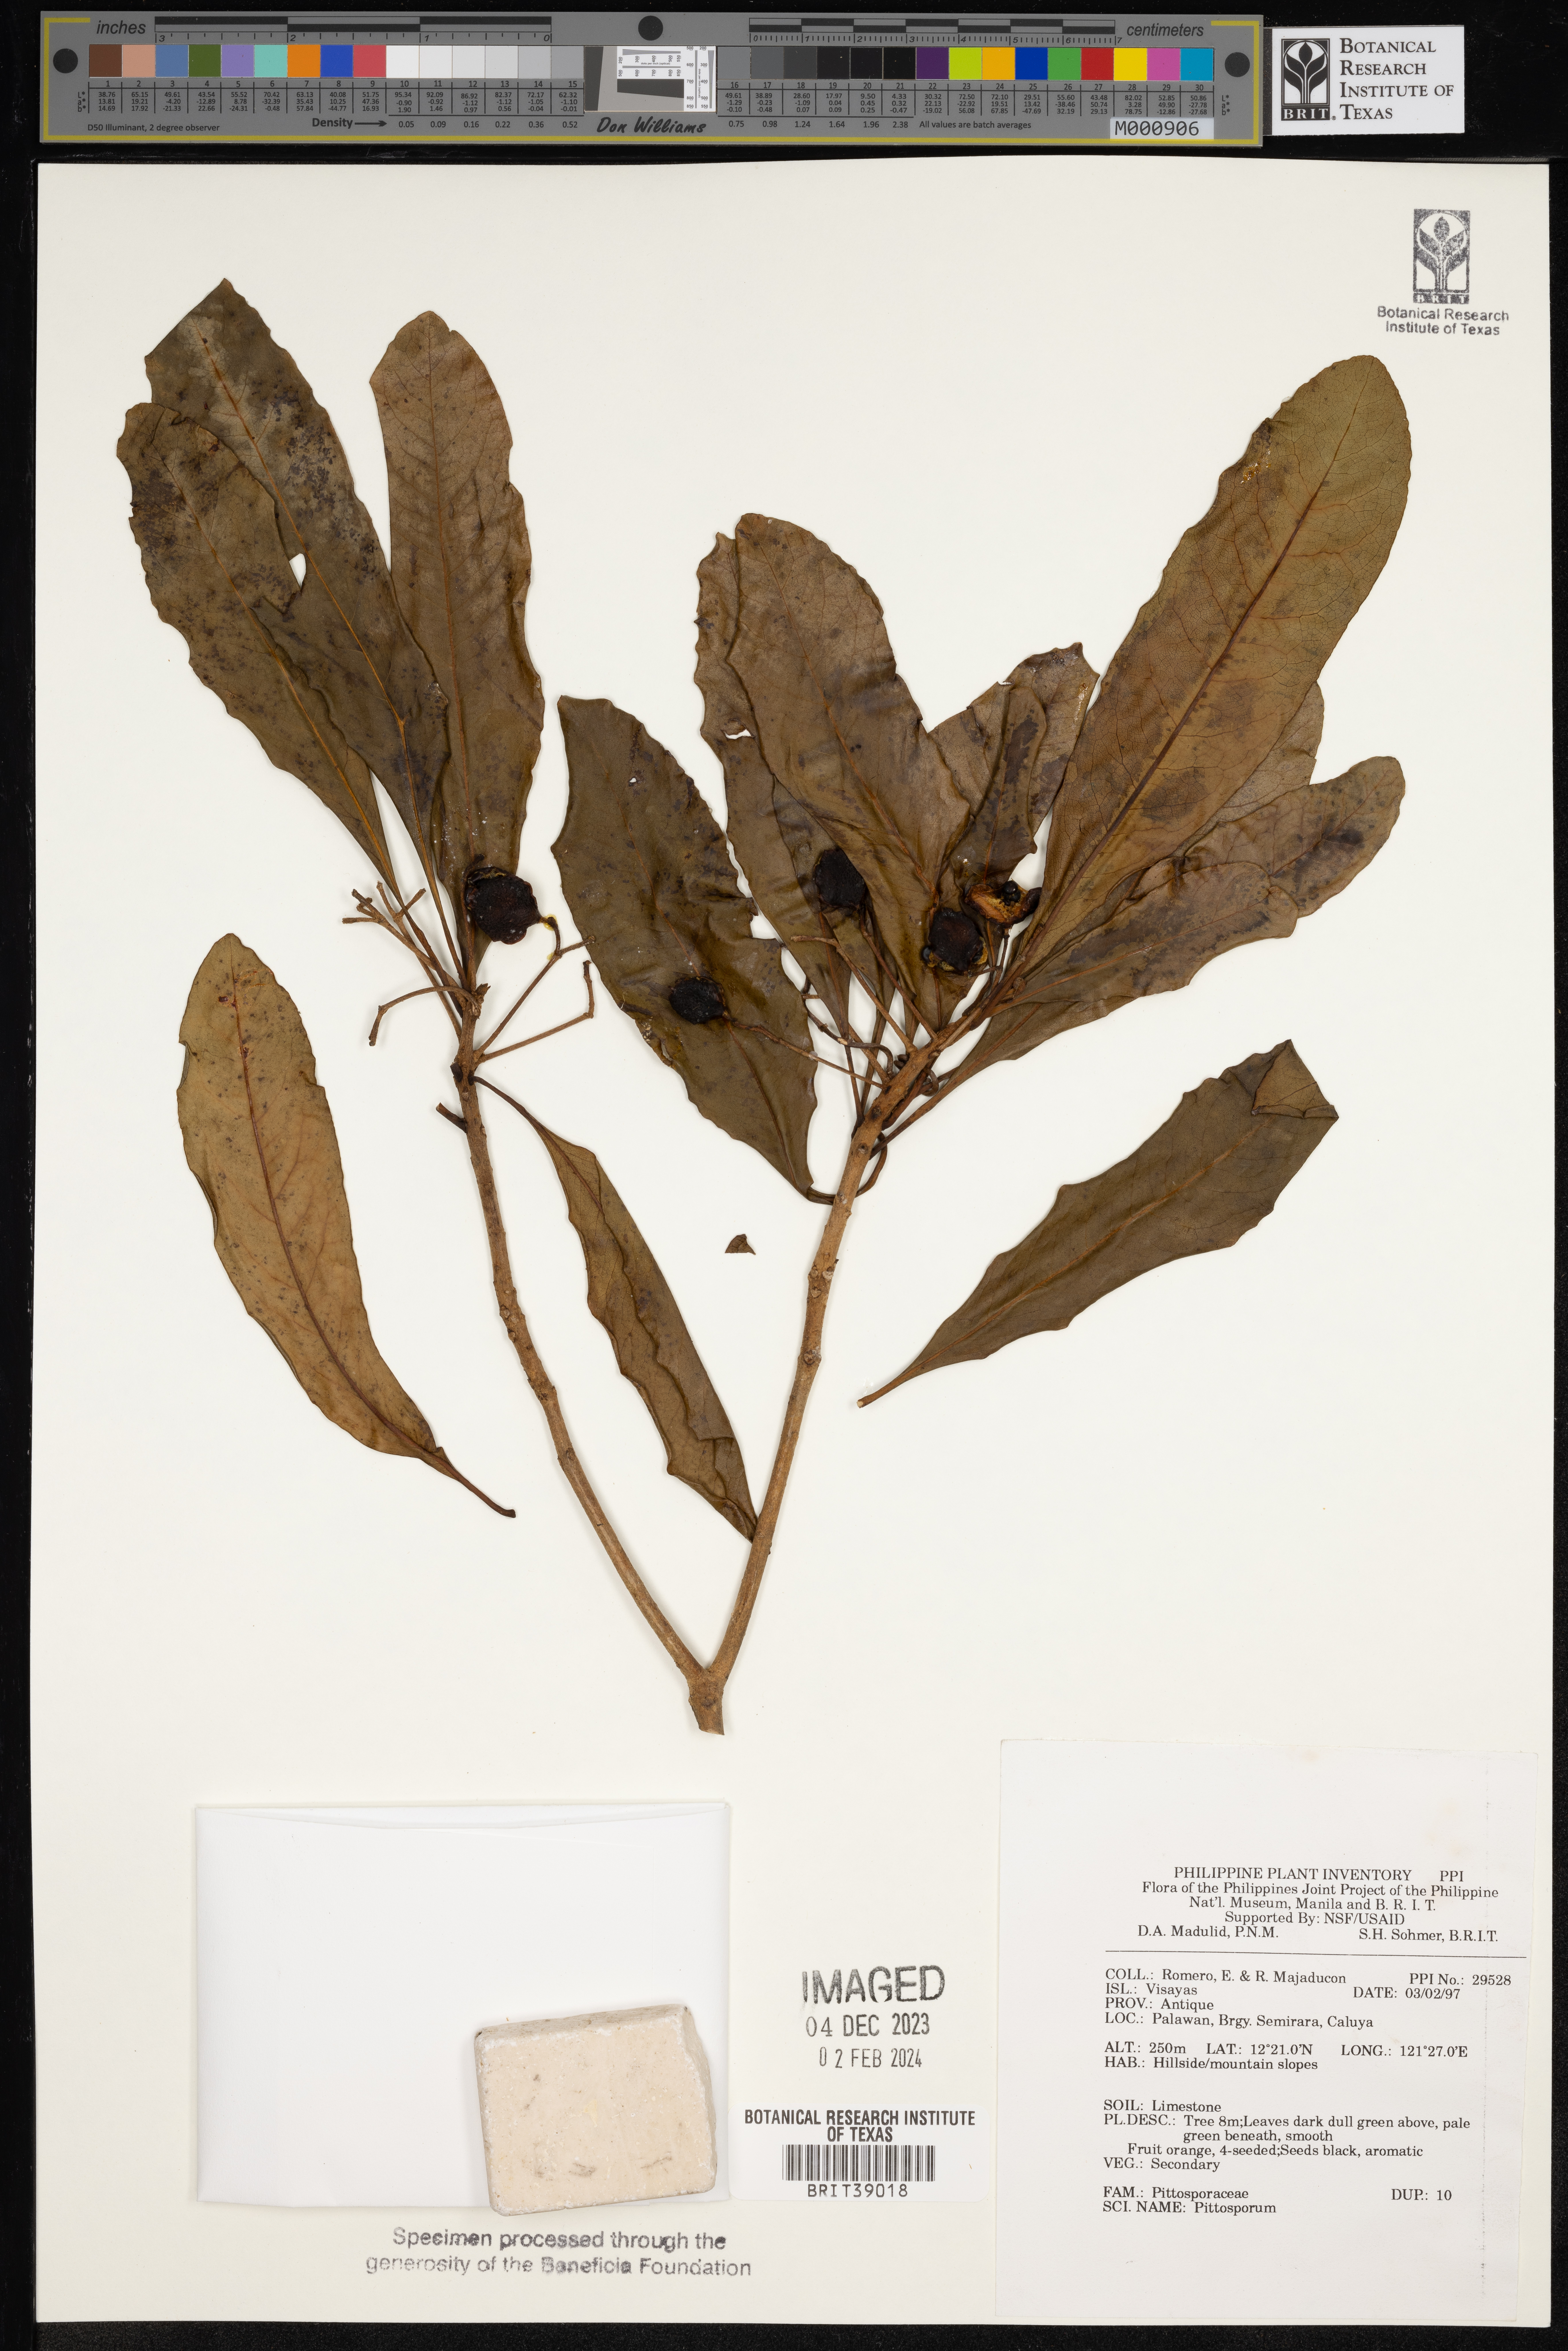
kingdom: Plantae
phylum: Tracheophyta
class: Magnoliopsida
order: Apiales
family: Pittosporaceae
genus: Pittosporum
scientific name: Pittosporum
